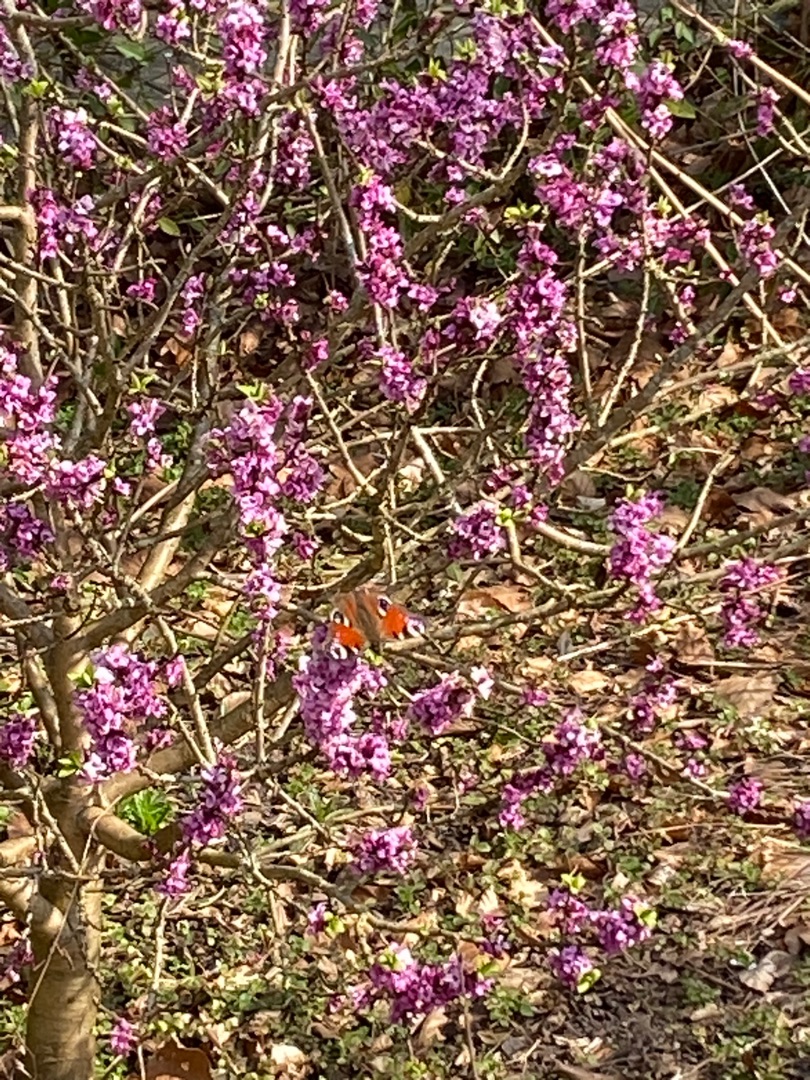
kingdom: Animalia
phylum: Arthropoda
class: Insecta
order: Lepidoptera
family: Nymphalidae
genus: Aglais
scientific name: Aglais io
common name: Dagpåfugleøje
